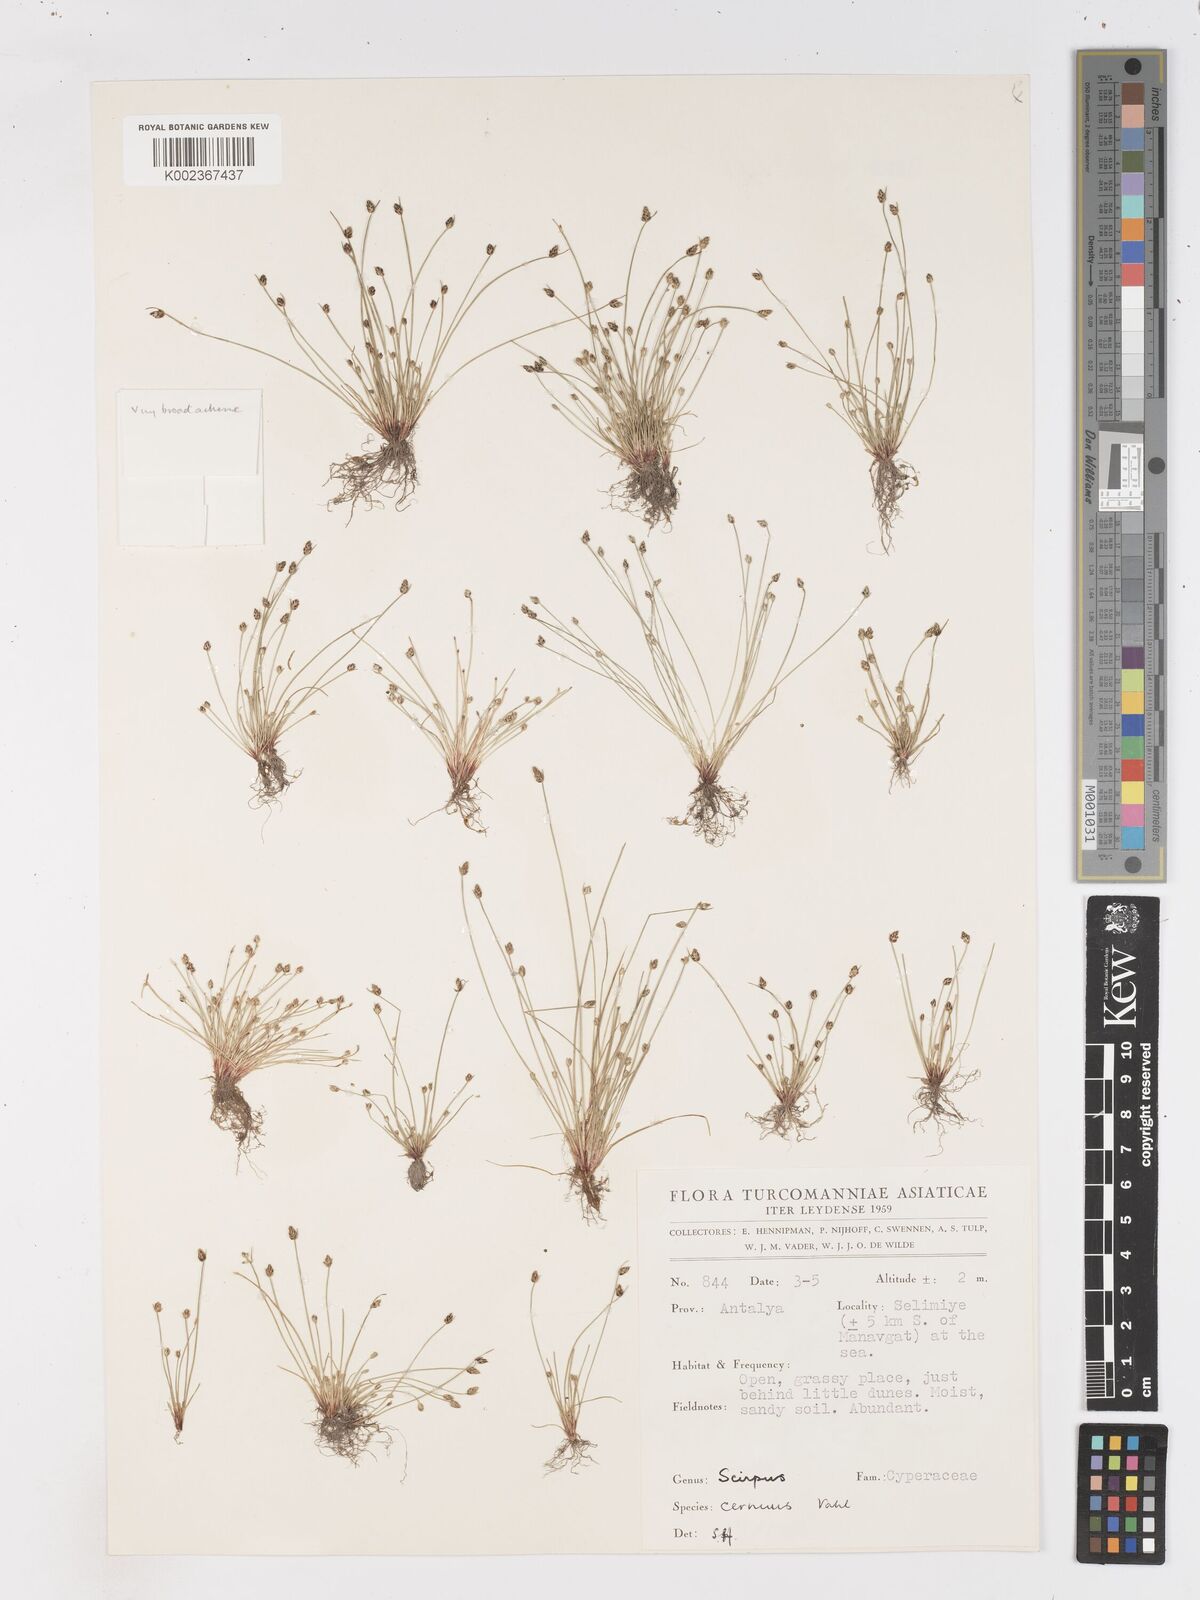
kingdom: Plantae
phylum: Tracheophyta
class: Liliopsida
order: Poales
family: Cyperaceae
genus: Isolepis
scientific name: Isolepis cernua
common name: Slender club-rush
